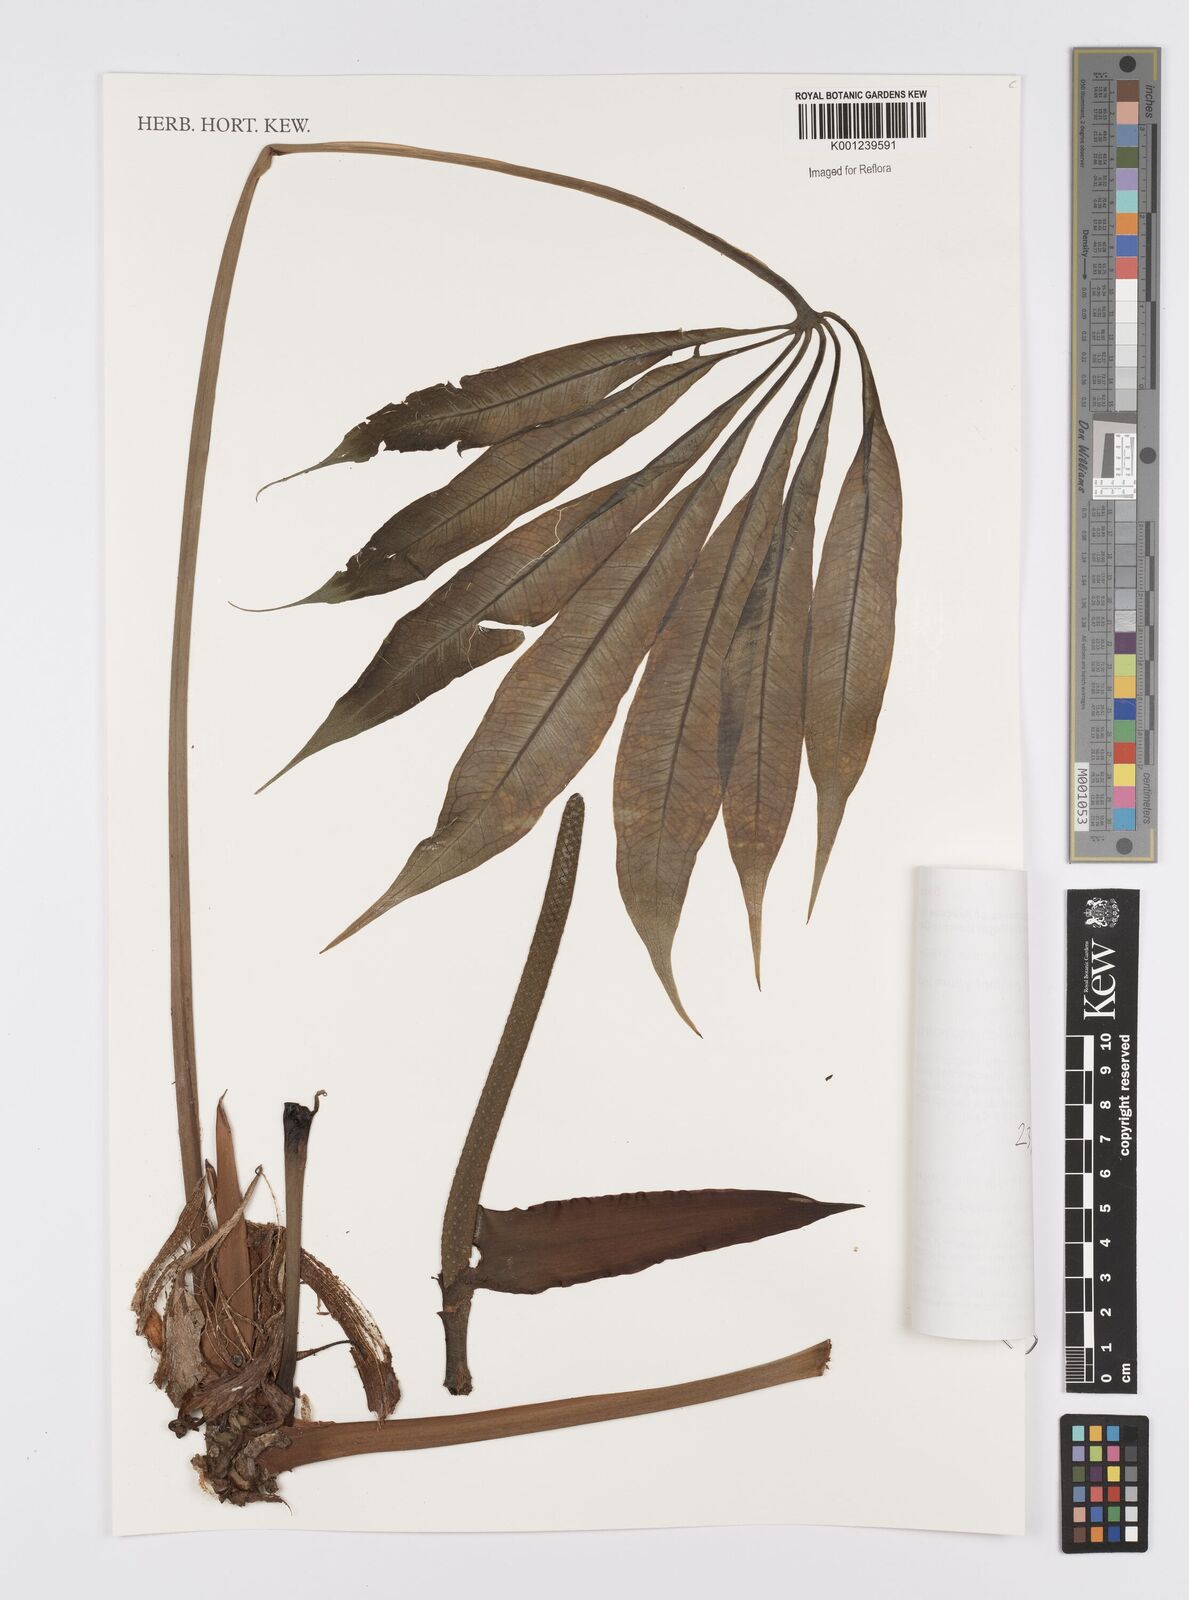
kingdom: Plantae
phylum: Tracheophyta
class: Liliopsida
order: Alismatales
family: Araceae
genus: Anthurium
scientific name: Anthurium pentaphyllum
